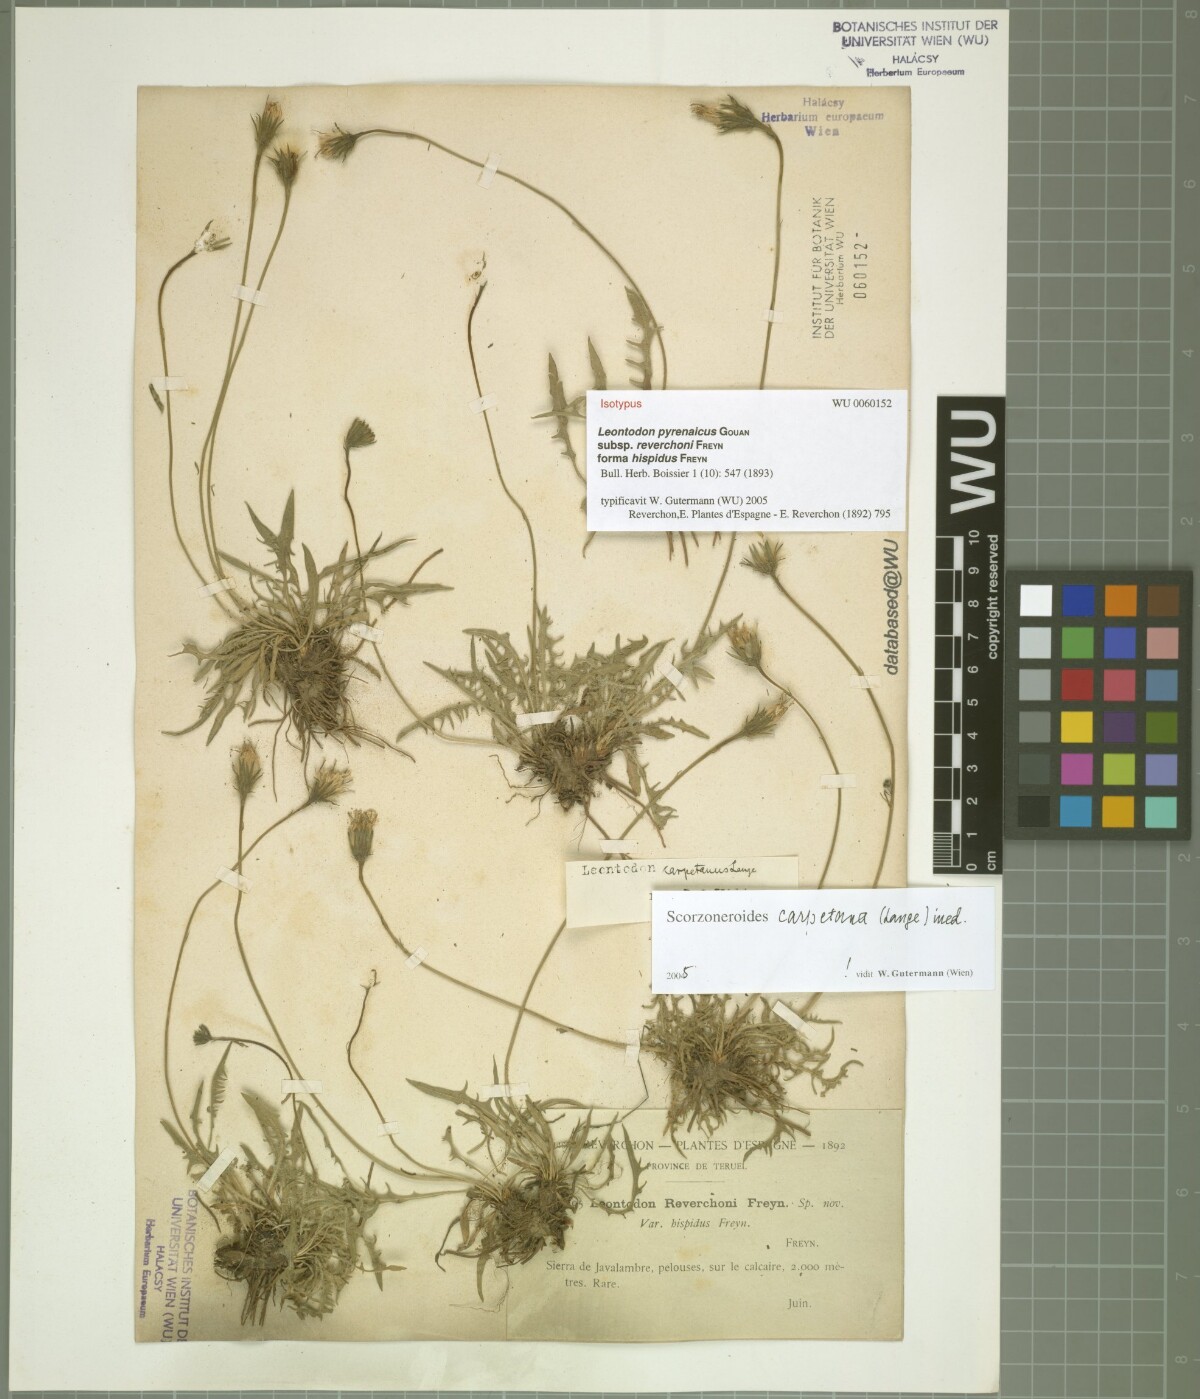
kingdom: Plantae
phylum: Tracheophyta
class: Magnoliopsida
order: Asterales
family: Asteraceae
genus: Scorzoneroides
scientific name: Scorzoneroides pyrenaica
